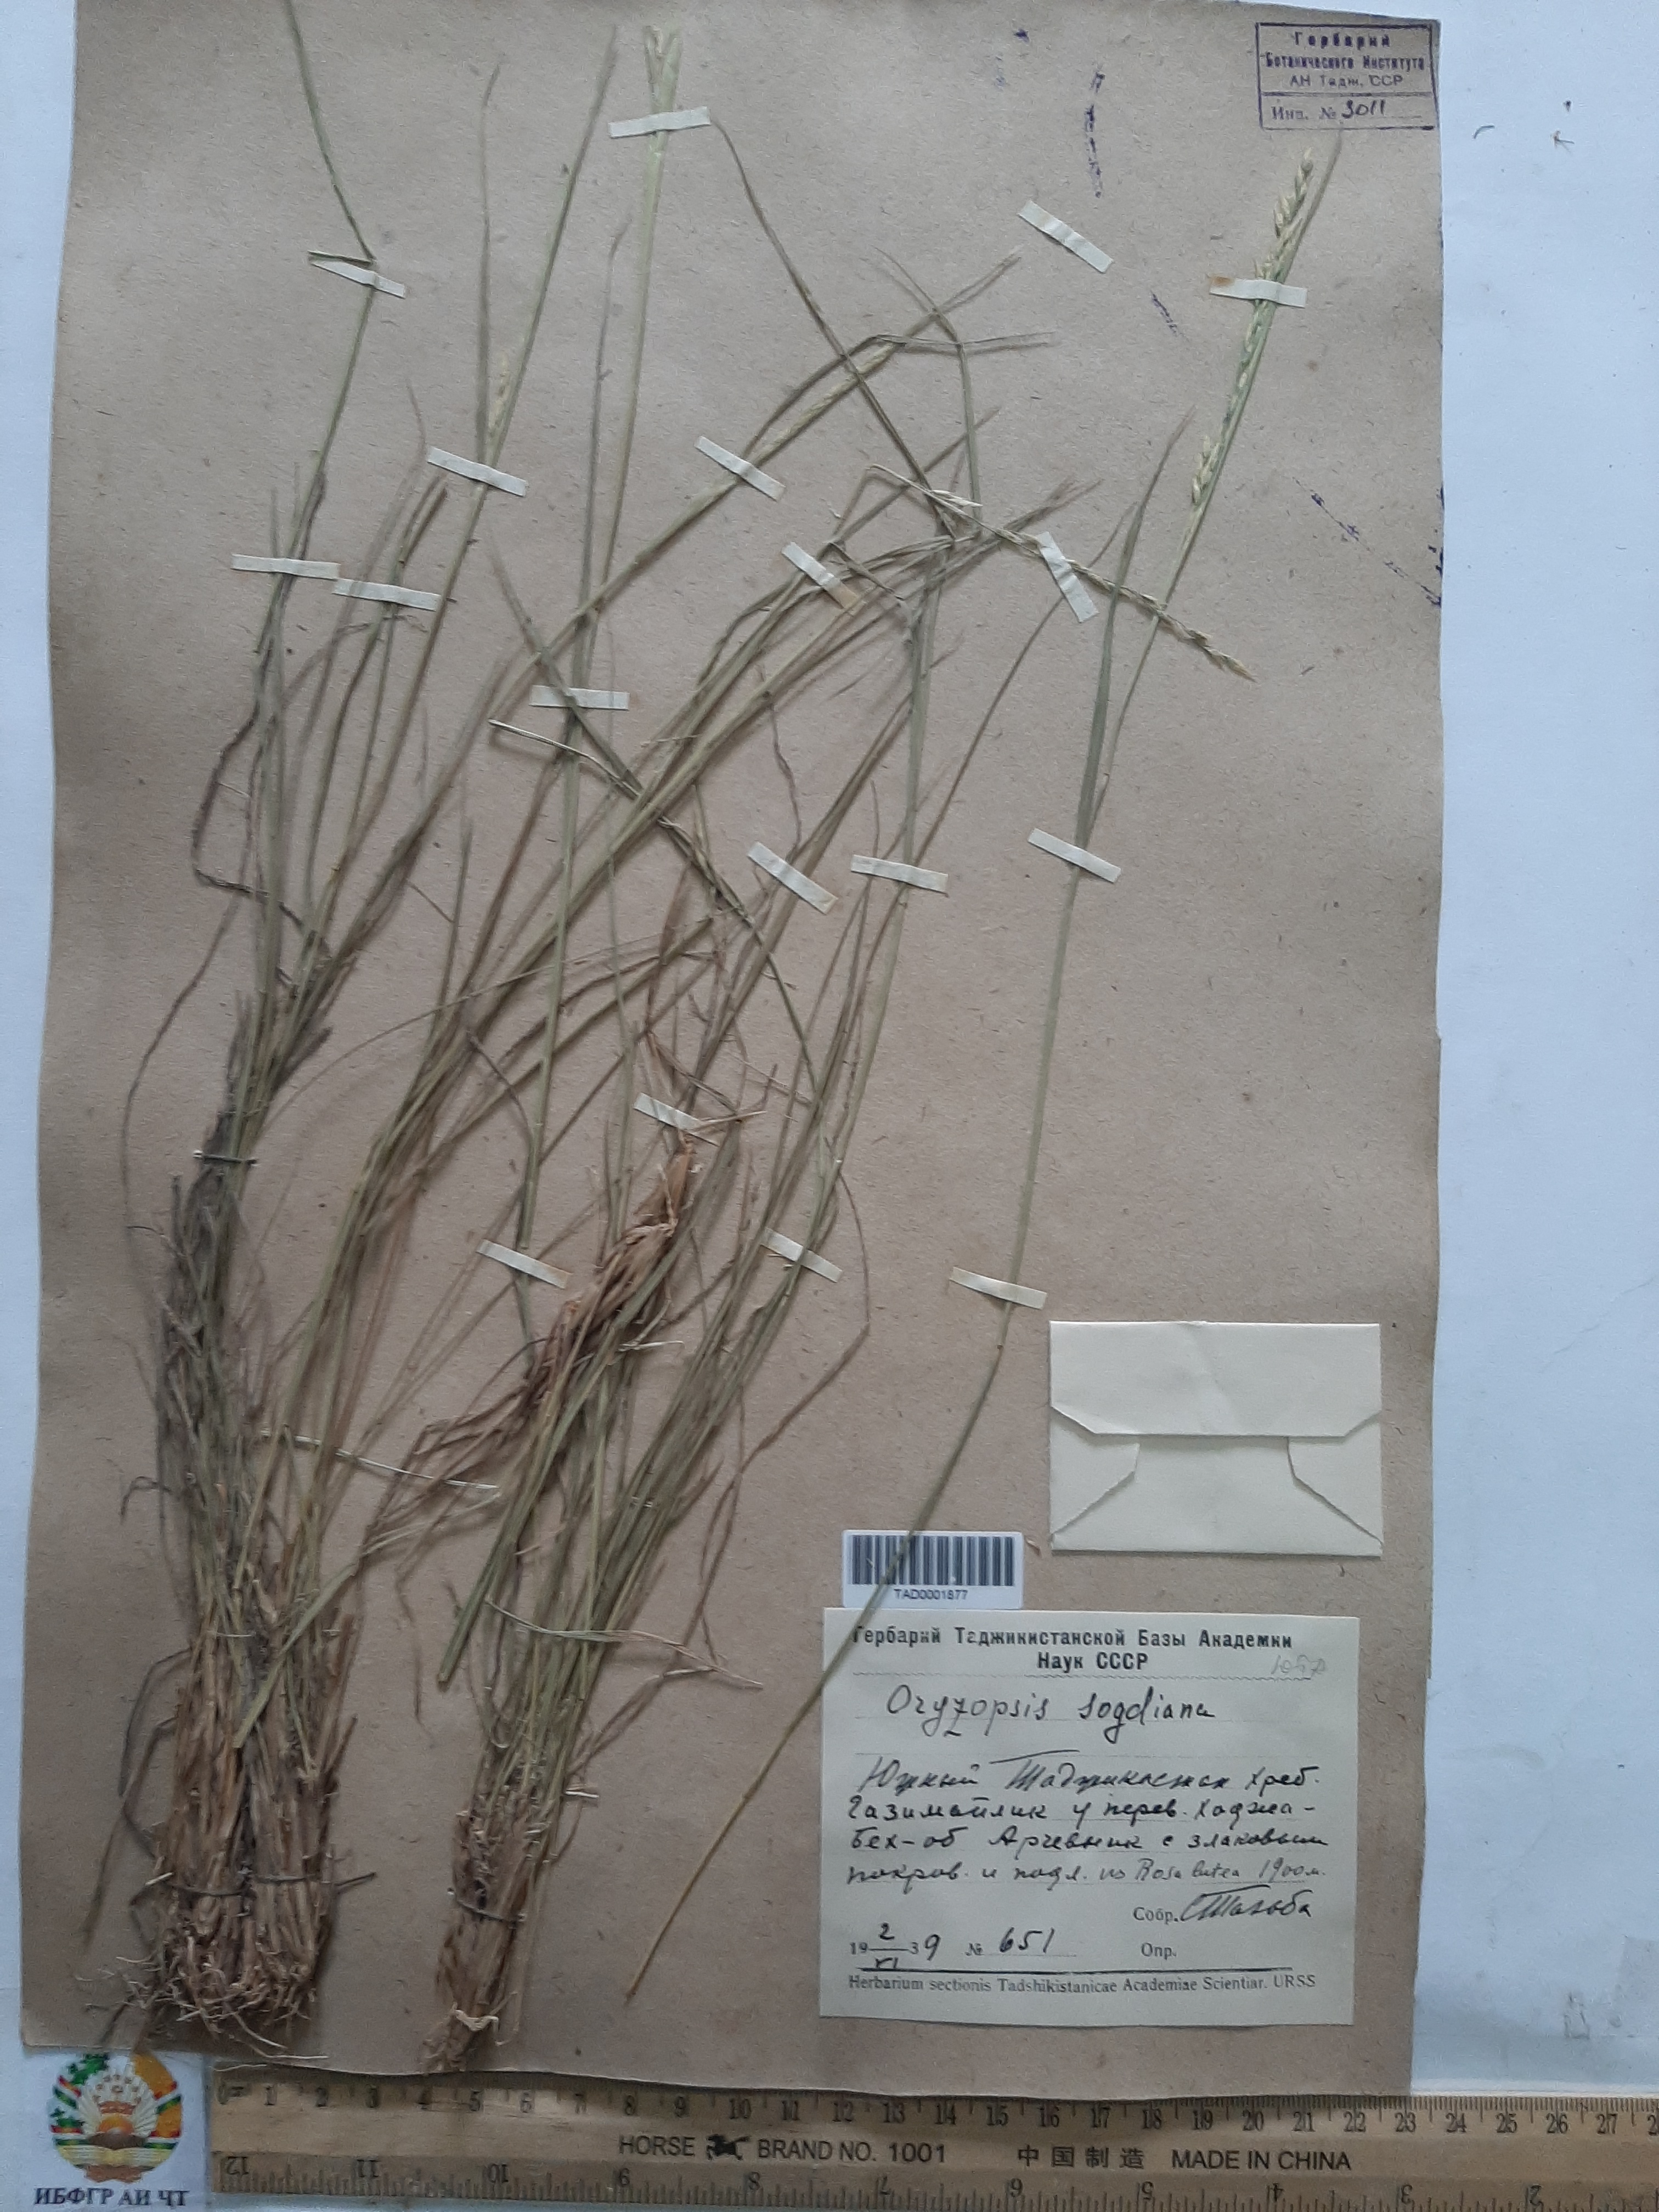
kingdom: Plantae
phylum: Tracheophyta
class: Liliopsida
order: Poales
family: Poaceae
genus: Piptatherum
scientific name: Piptatherum sogdianum
